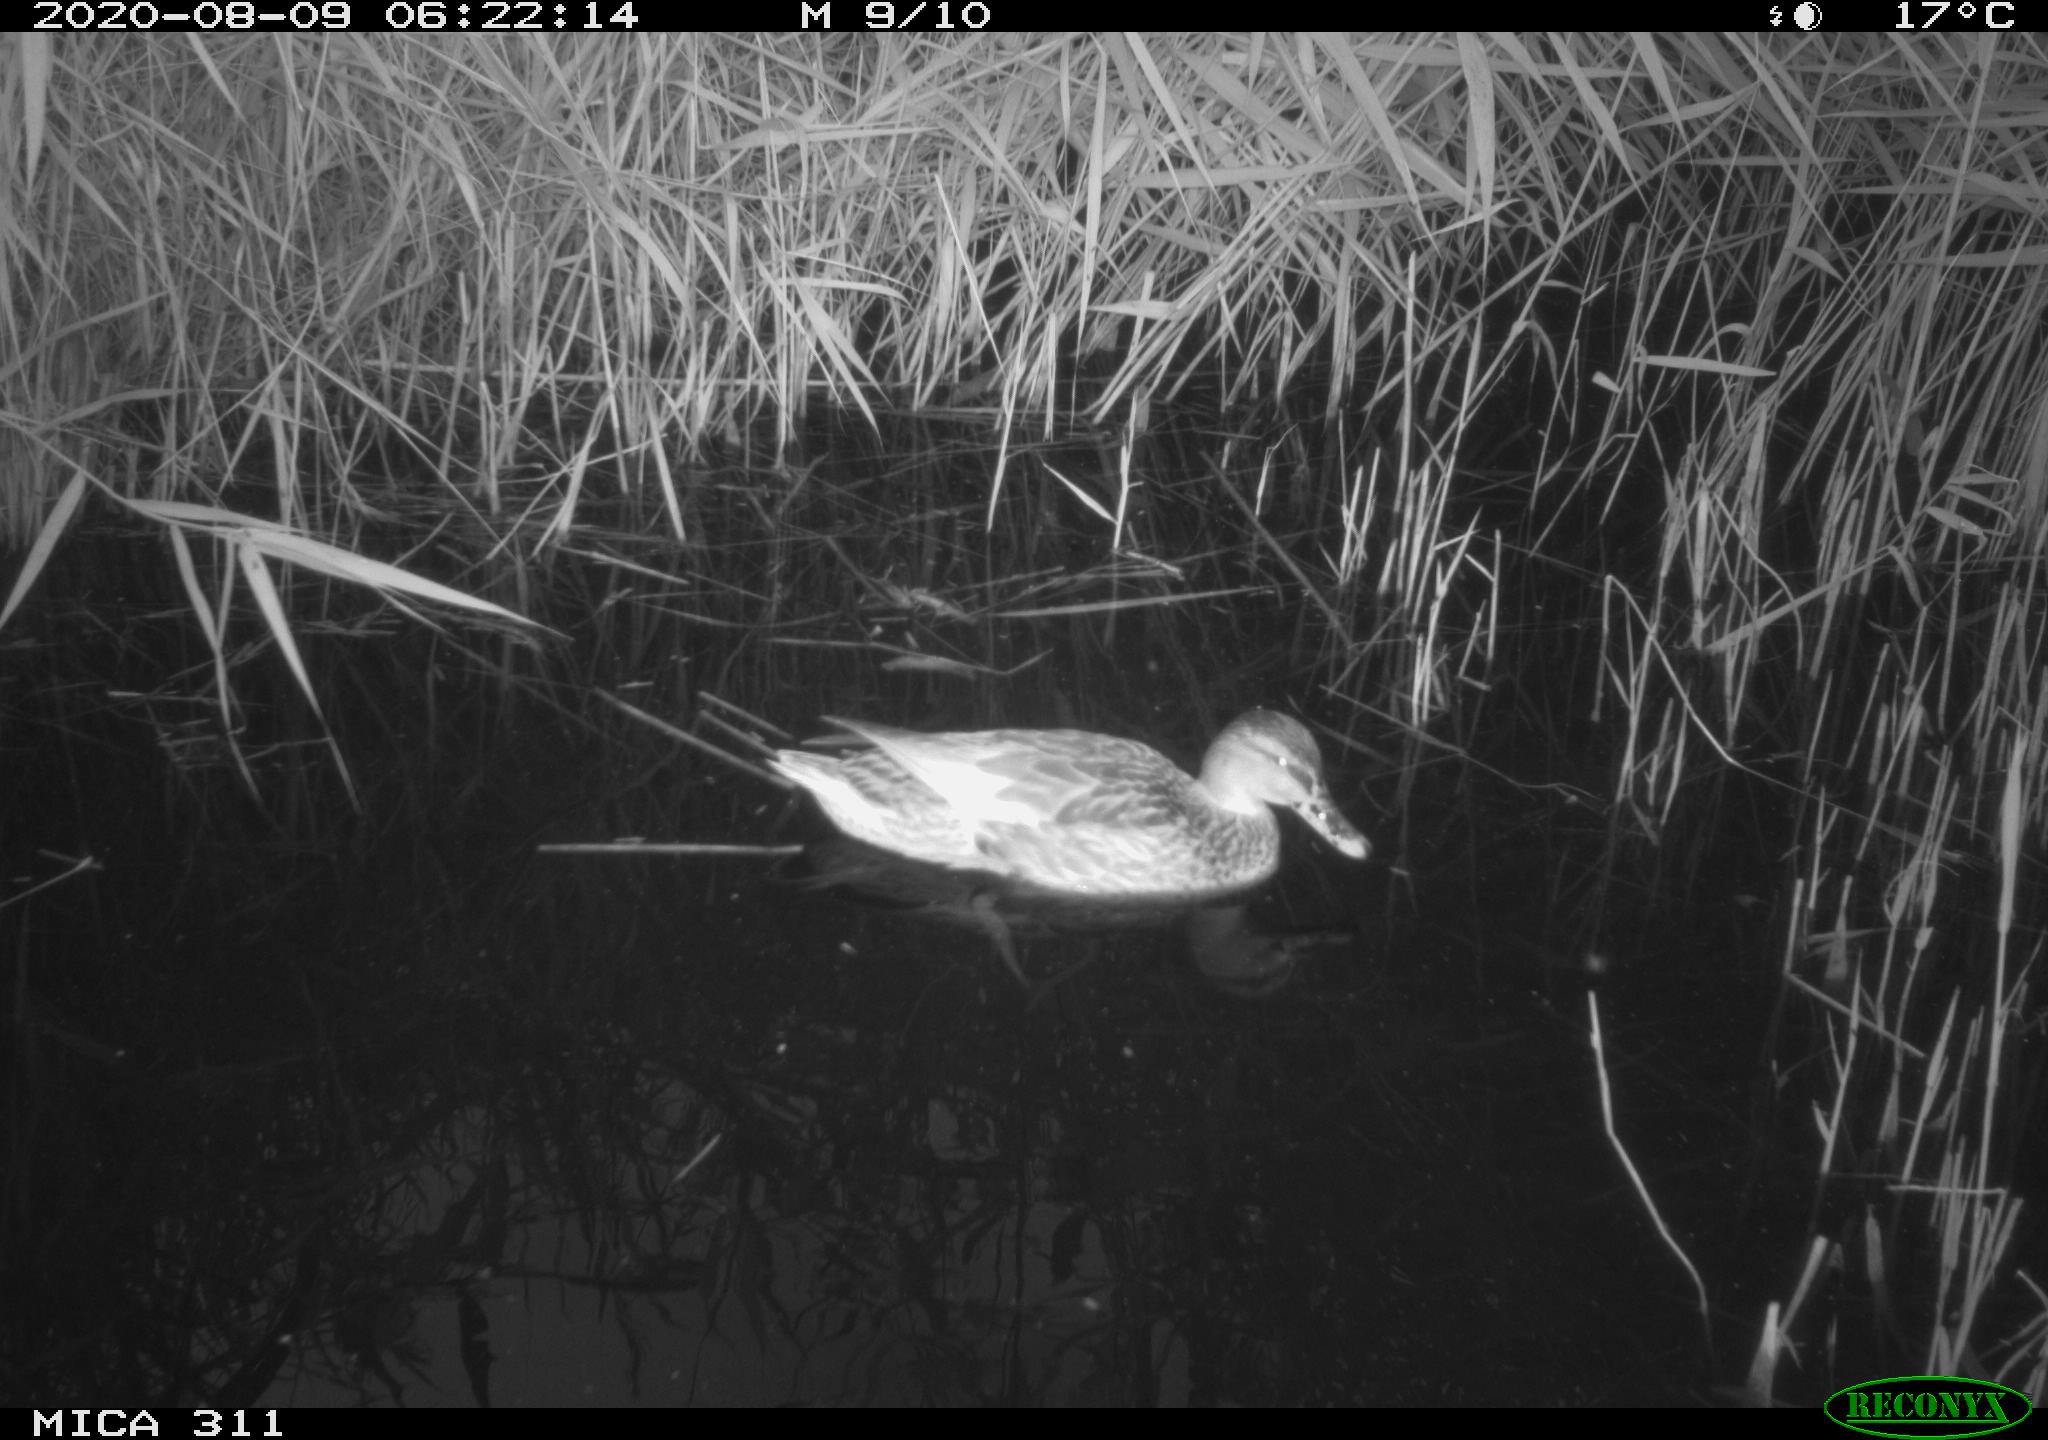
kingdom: Animalia
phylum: Chordata
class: Aves
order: Anseriformes
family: Anatidae
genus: Anas
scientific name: Anas platyrhynchos
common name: Mallard
